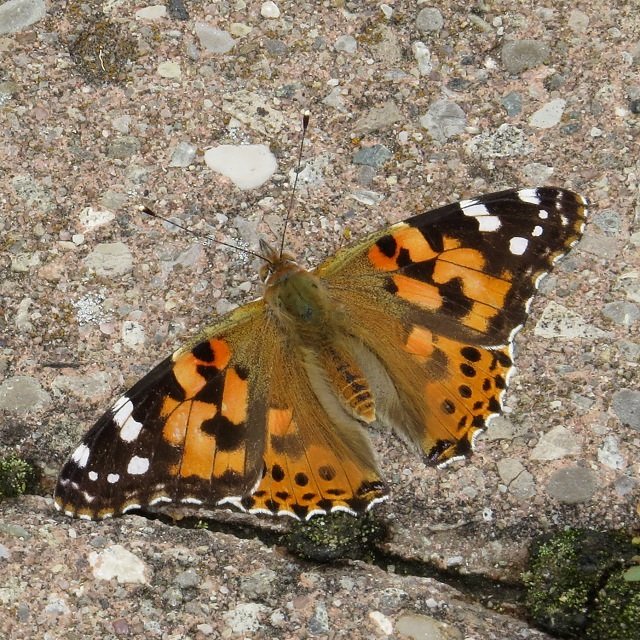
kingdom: Animalia
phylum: Arthropoda
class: Insecta
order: Lepidoptera
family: Nymphalidae
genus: Vanessa
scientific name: Vanessa cardui
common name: Painted Lady
